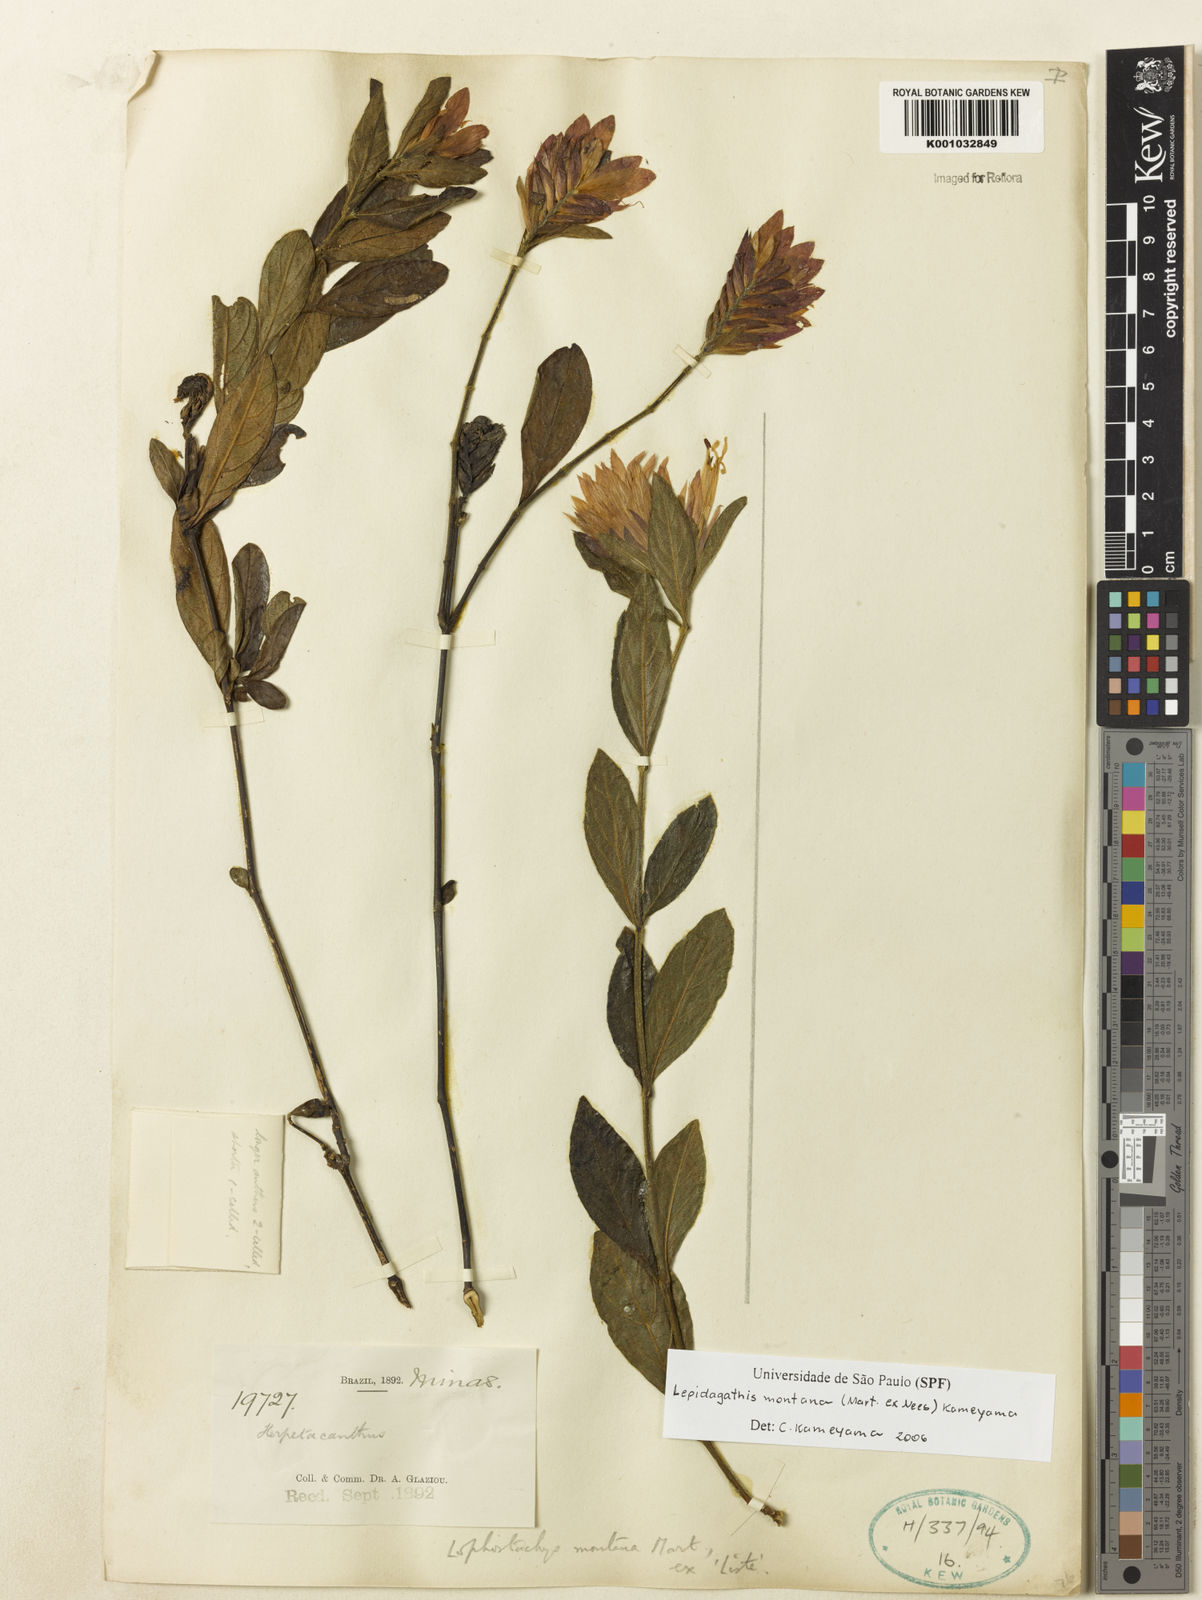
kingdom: Plantae
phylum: Tracheophyta
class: Magnoliopsida
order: Lamiales
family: Acanthaceae
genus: Lepidagathis
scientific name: Lepidagathis montana
